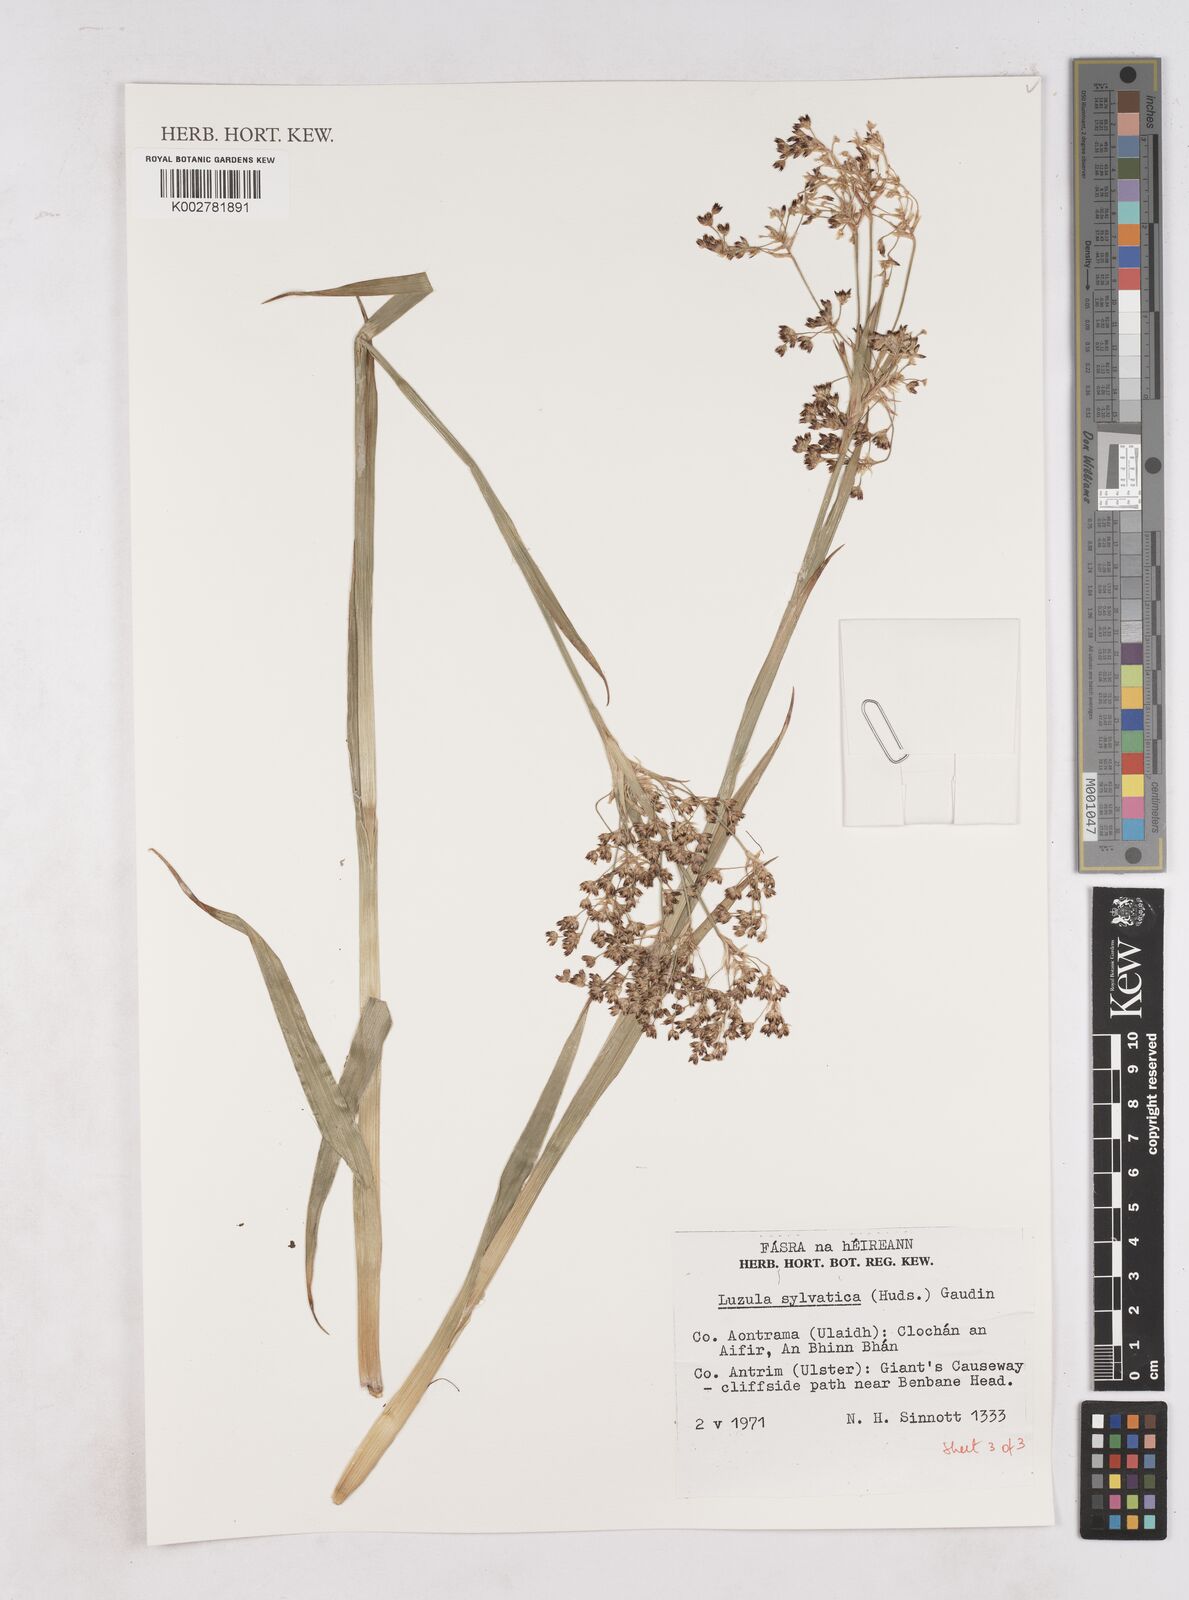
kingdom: Plantae
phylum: Tracheophyta
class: Liliopsida
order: Poales
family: Juncaceae
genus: Luzula
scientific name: Luzula sylvatica
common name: Great wood-rush
